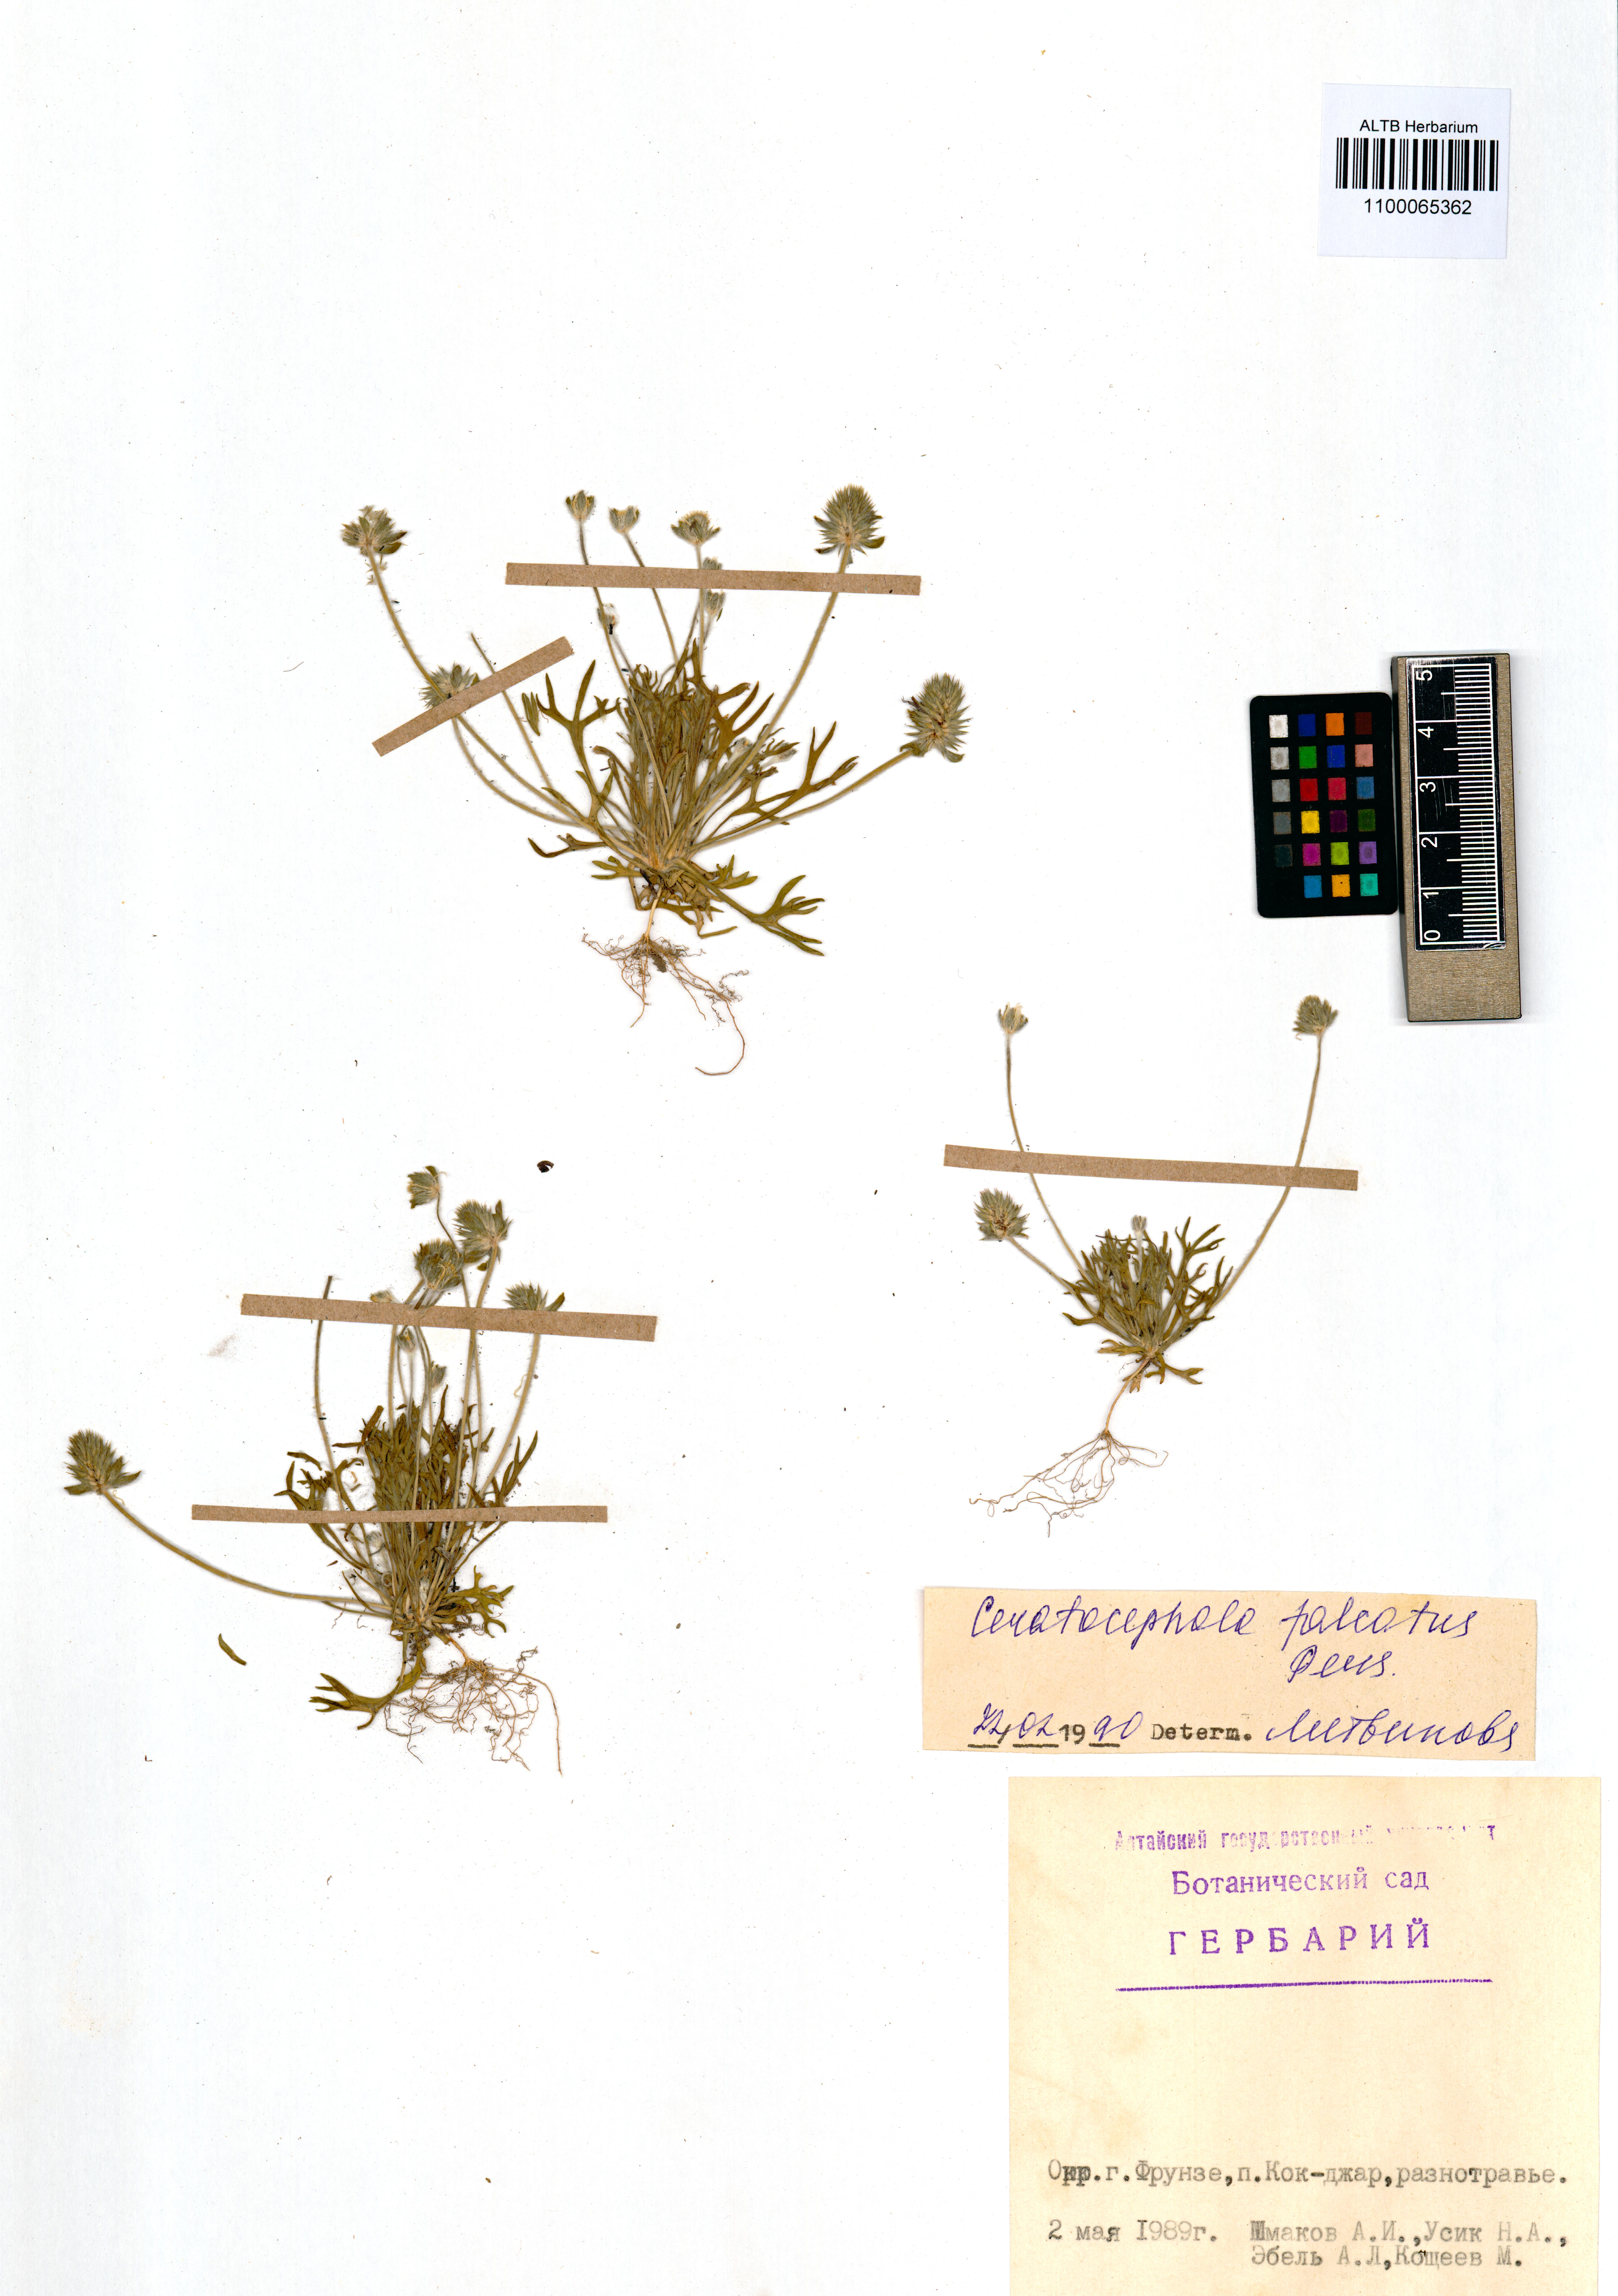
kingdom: Plantae
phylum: Tracheophyta
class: Magnoliopsida
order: Ranunculales
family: Ranunculaceae
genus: Ceratocephala
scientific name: Ceratocephala falcata
